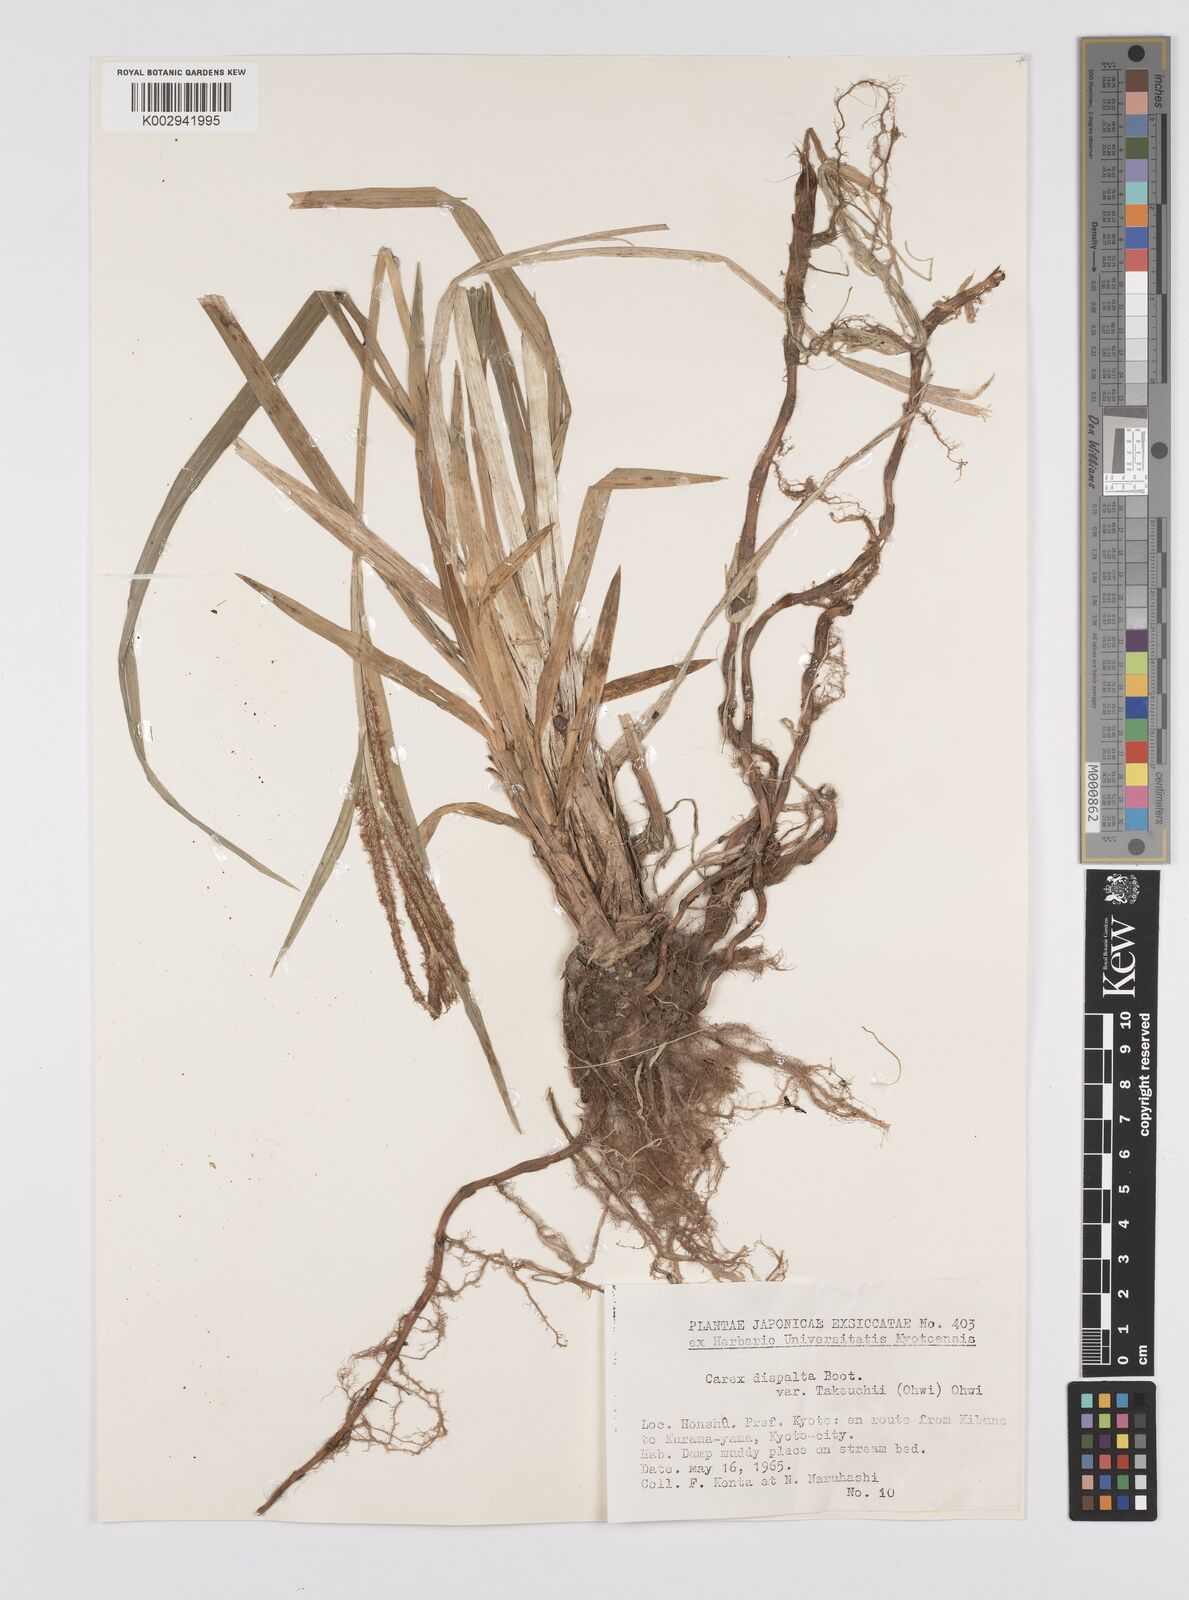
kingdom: Plantae
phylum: Tracheophyta
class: Liliopsida
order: Poales
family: Cyperaceae
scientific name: Cyperaceae
